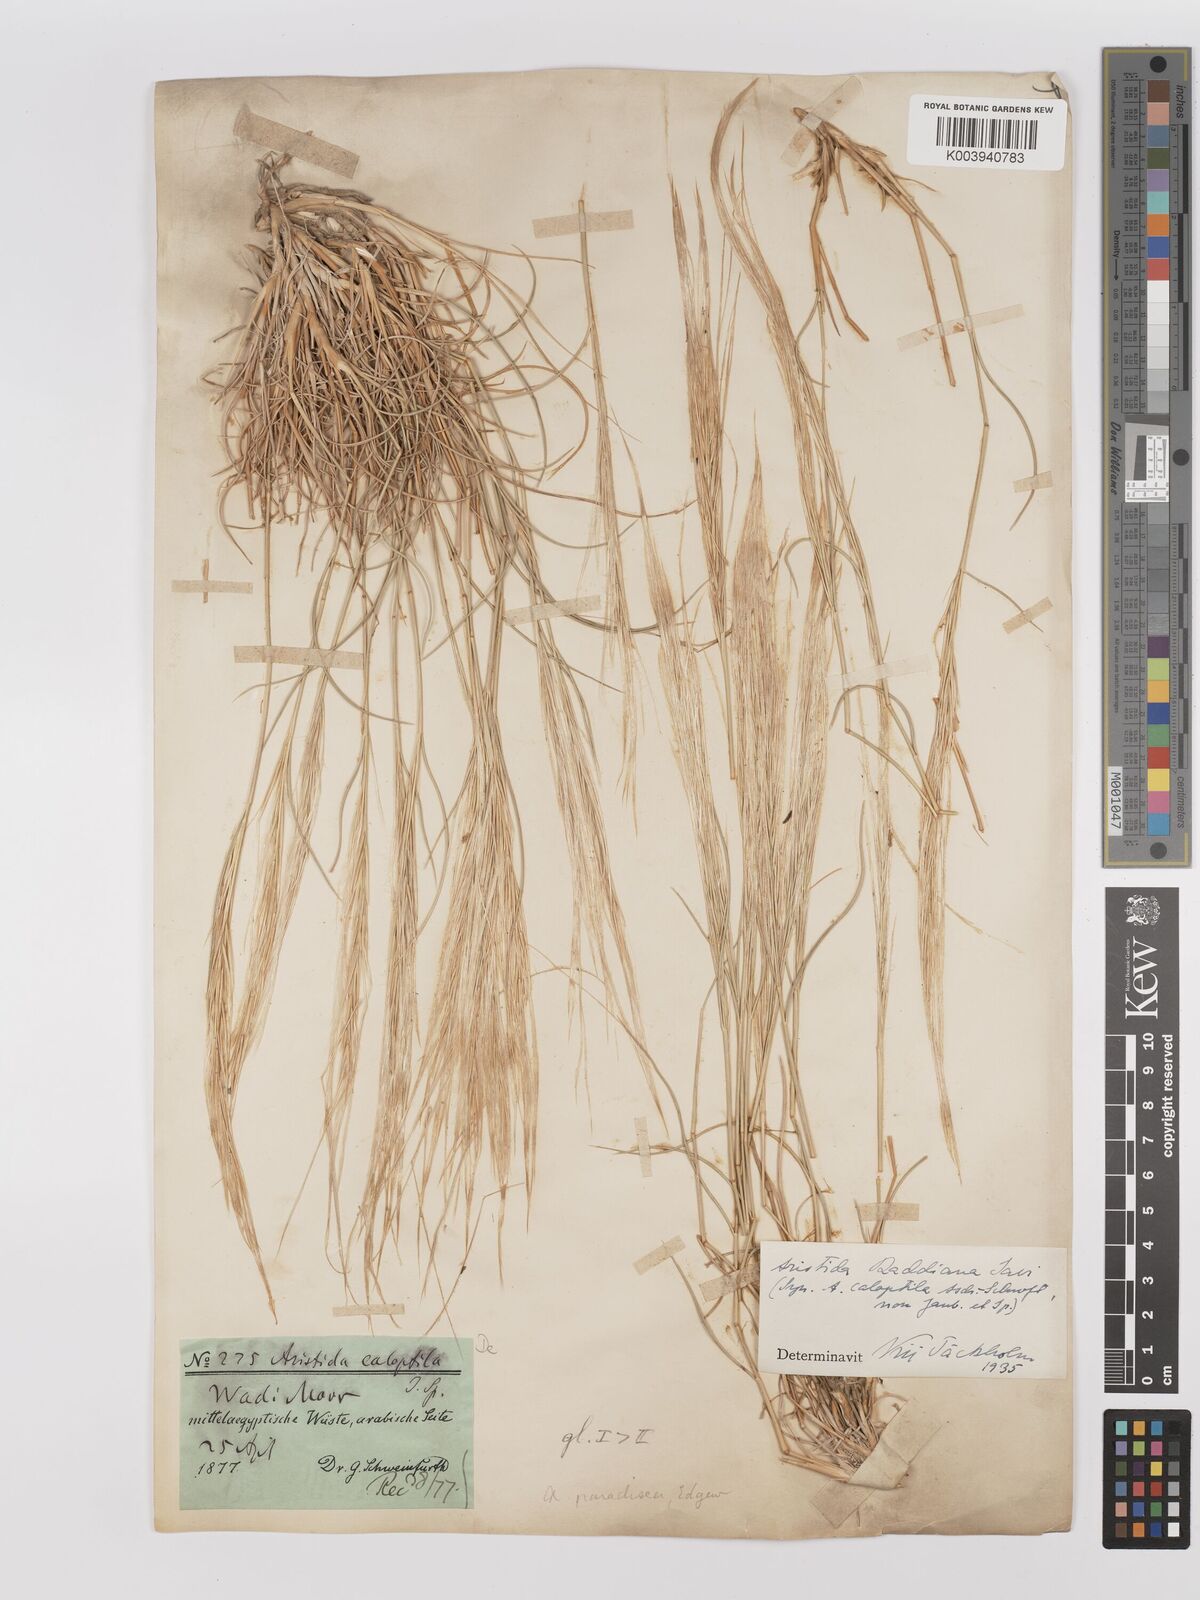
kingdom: Plantae
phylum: Tracheophyta
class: Liliopsida
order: Poales
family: Poaceae
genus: Stipagrostis
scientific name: Stipagrostis raddiana
